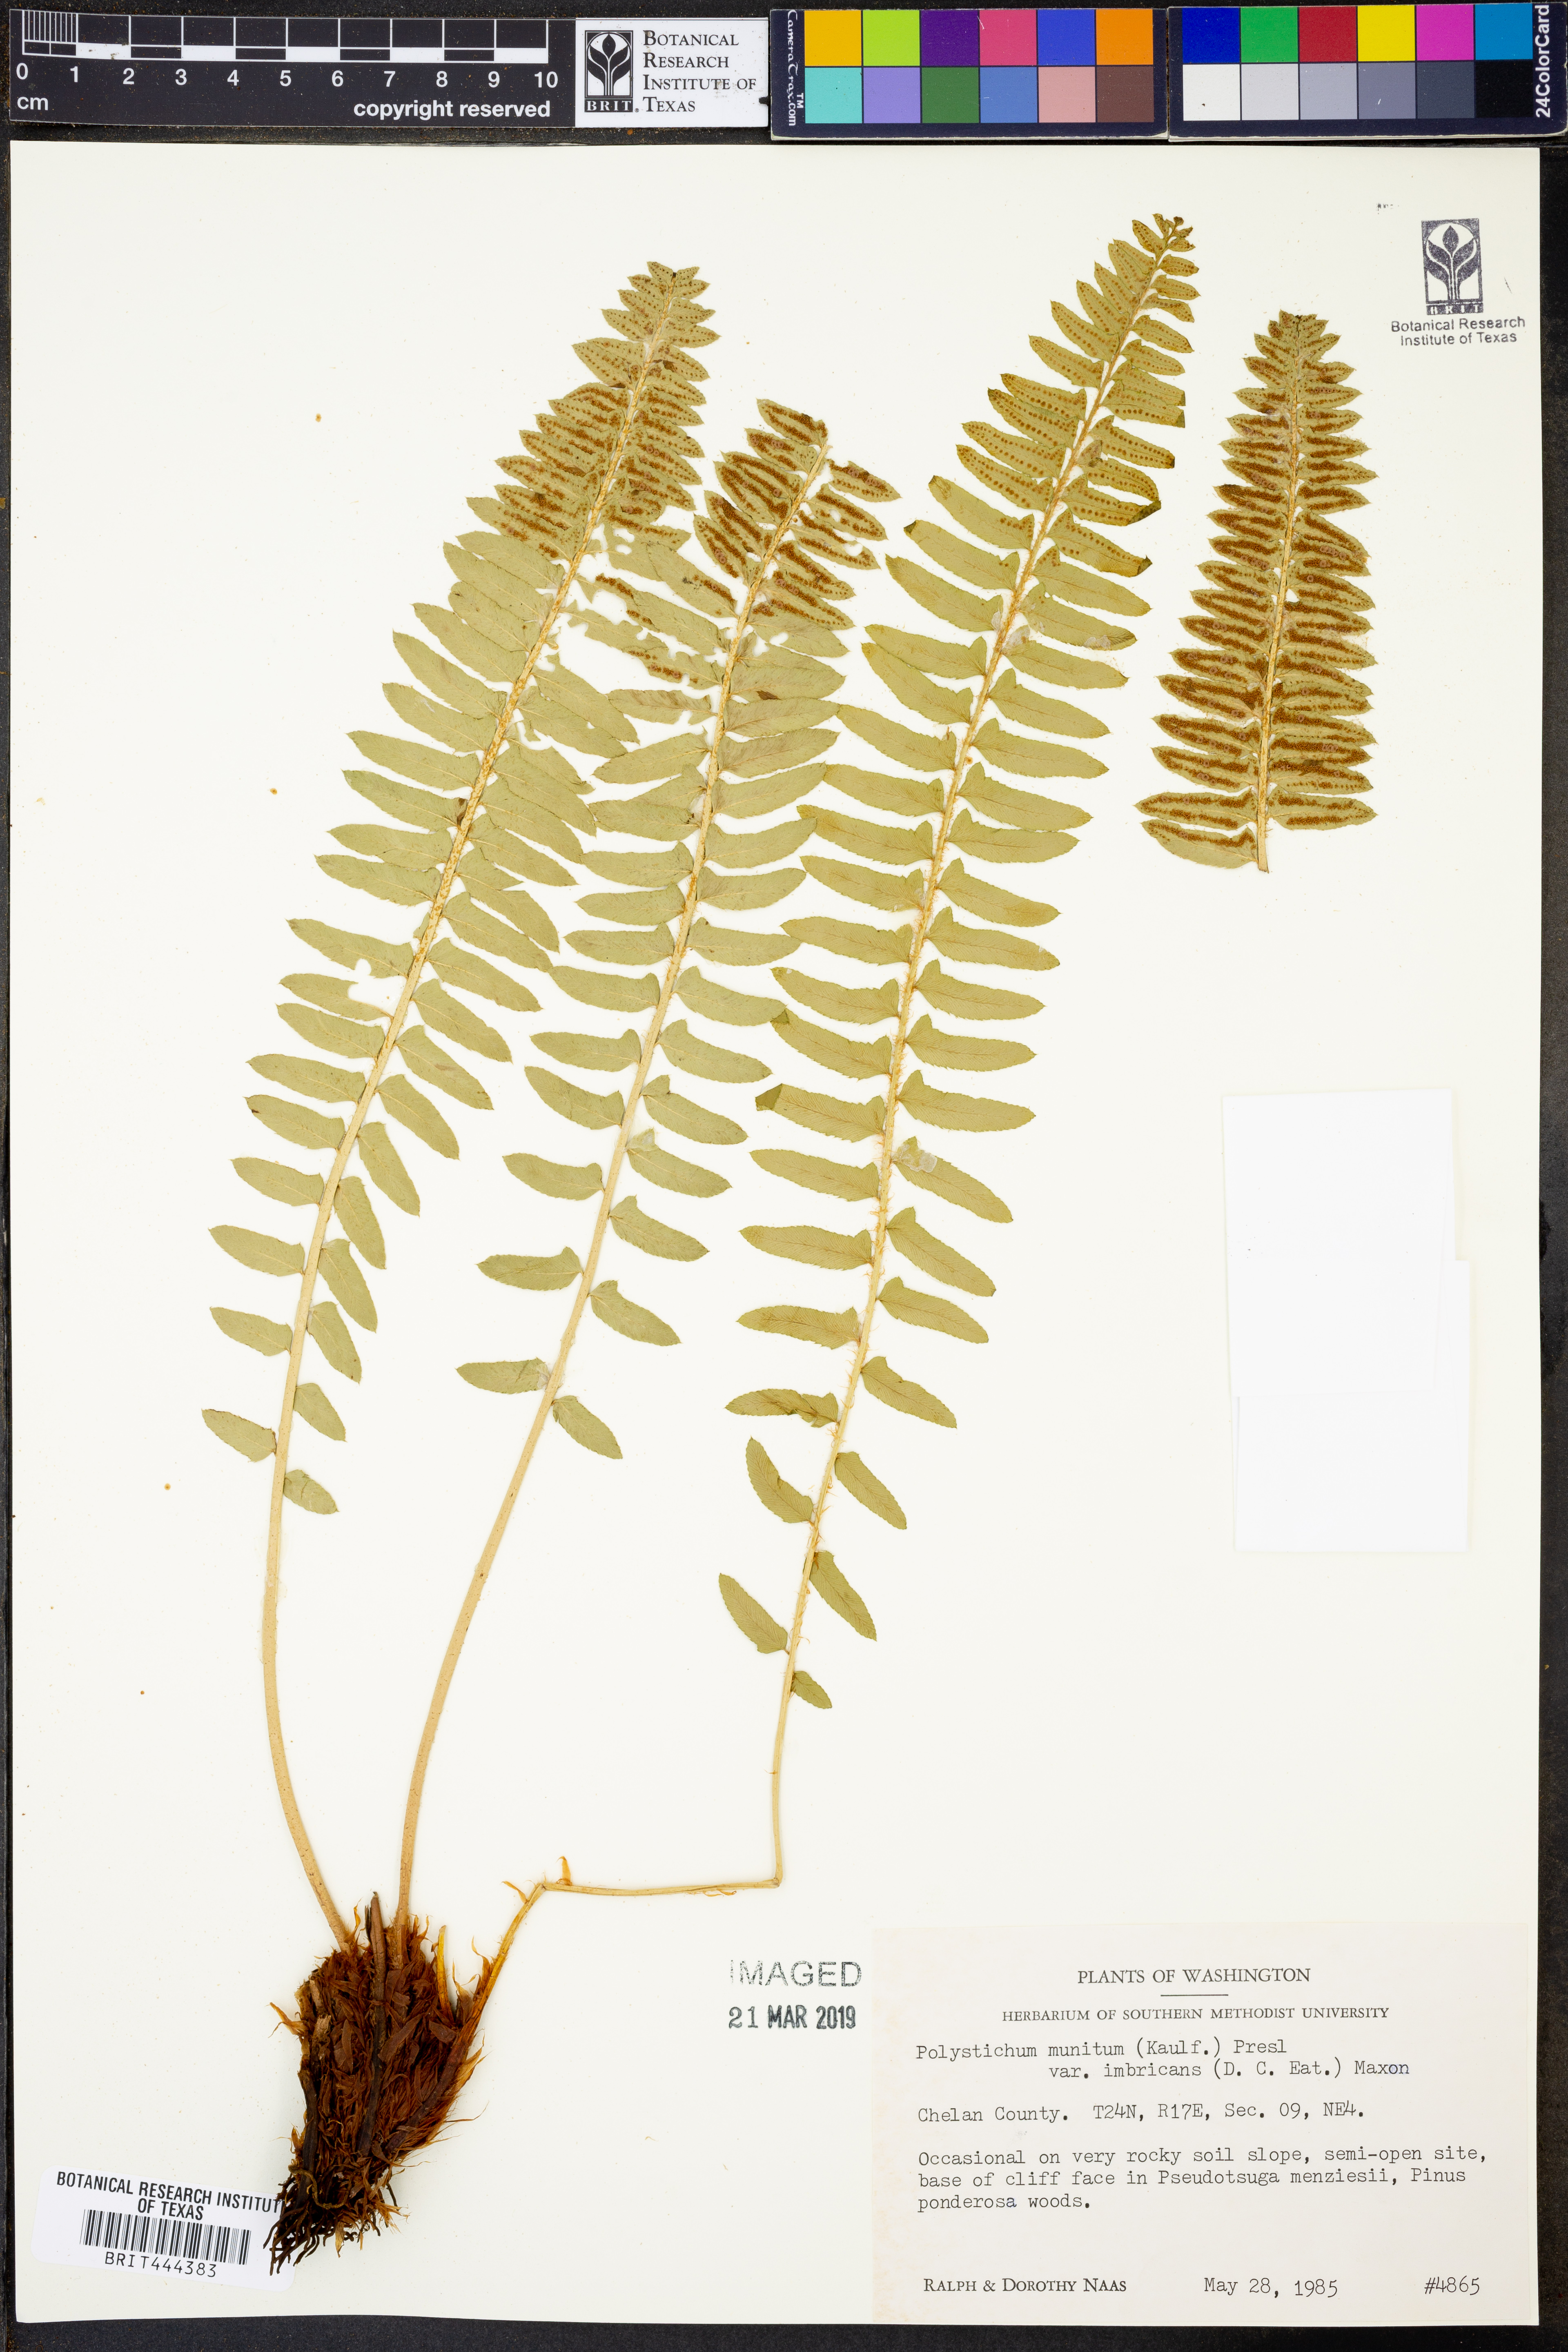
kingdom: Plantae
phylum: Tracheophyta
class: Polypodiopsida
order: Polypodiales
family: Dryopteridaceae
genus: Polystichum
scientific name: Polystichum imbricans
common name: Dwarf western sword fern
